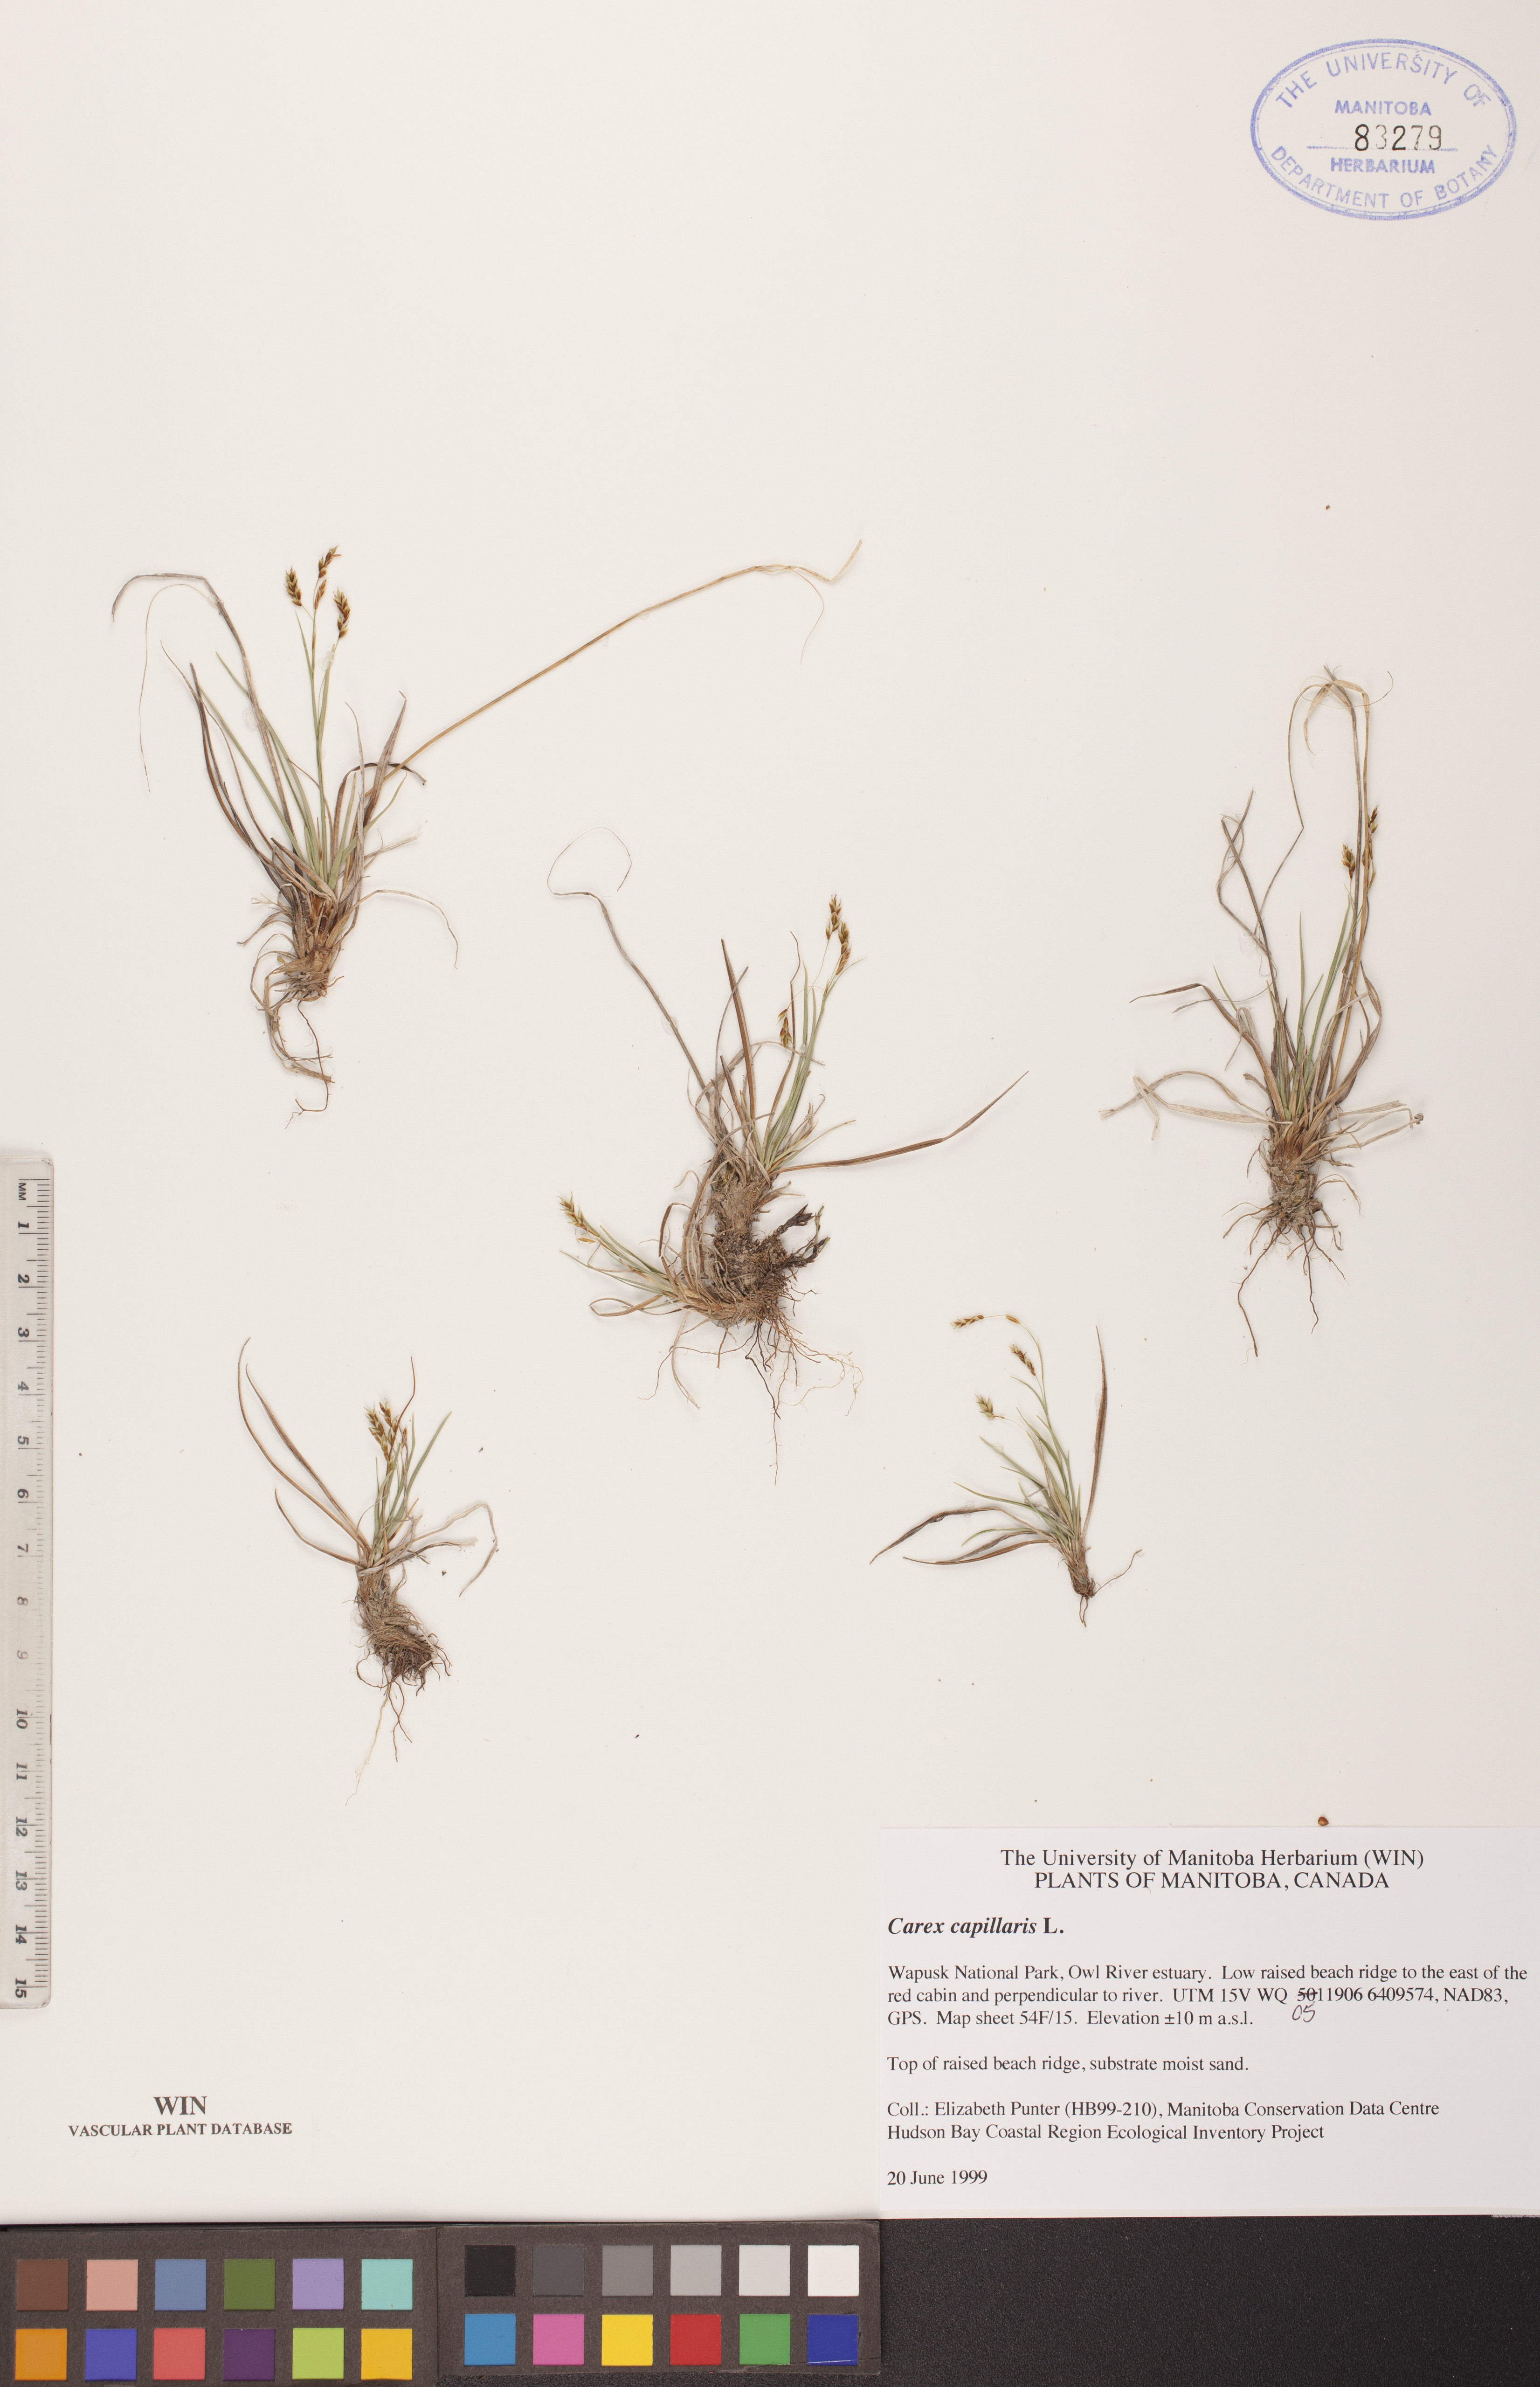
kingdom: Plantae
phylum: Tracheophyta
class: Liliopsida
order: Poales
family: Cyperaceae
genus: Carex
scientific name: Carex capillaris
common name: Hair sedge
